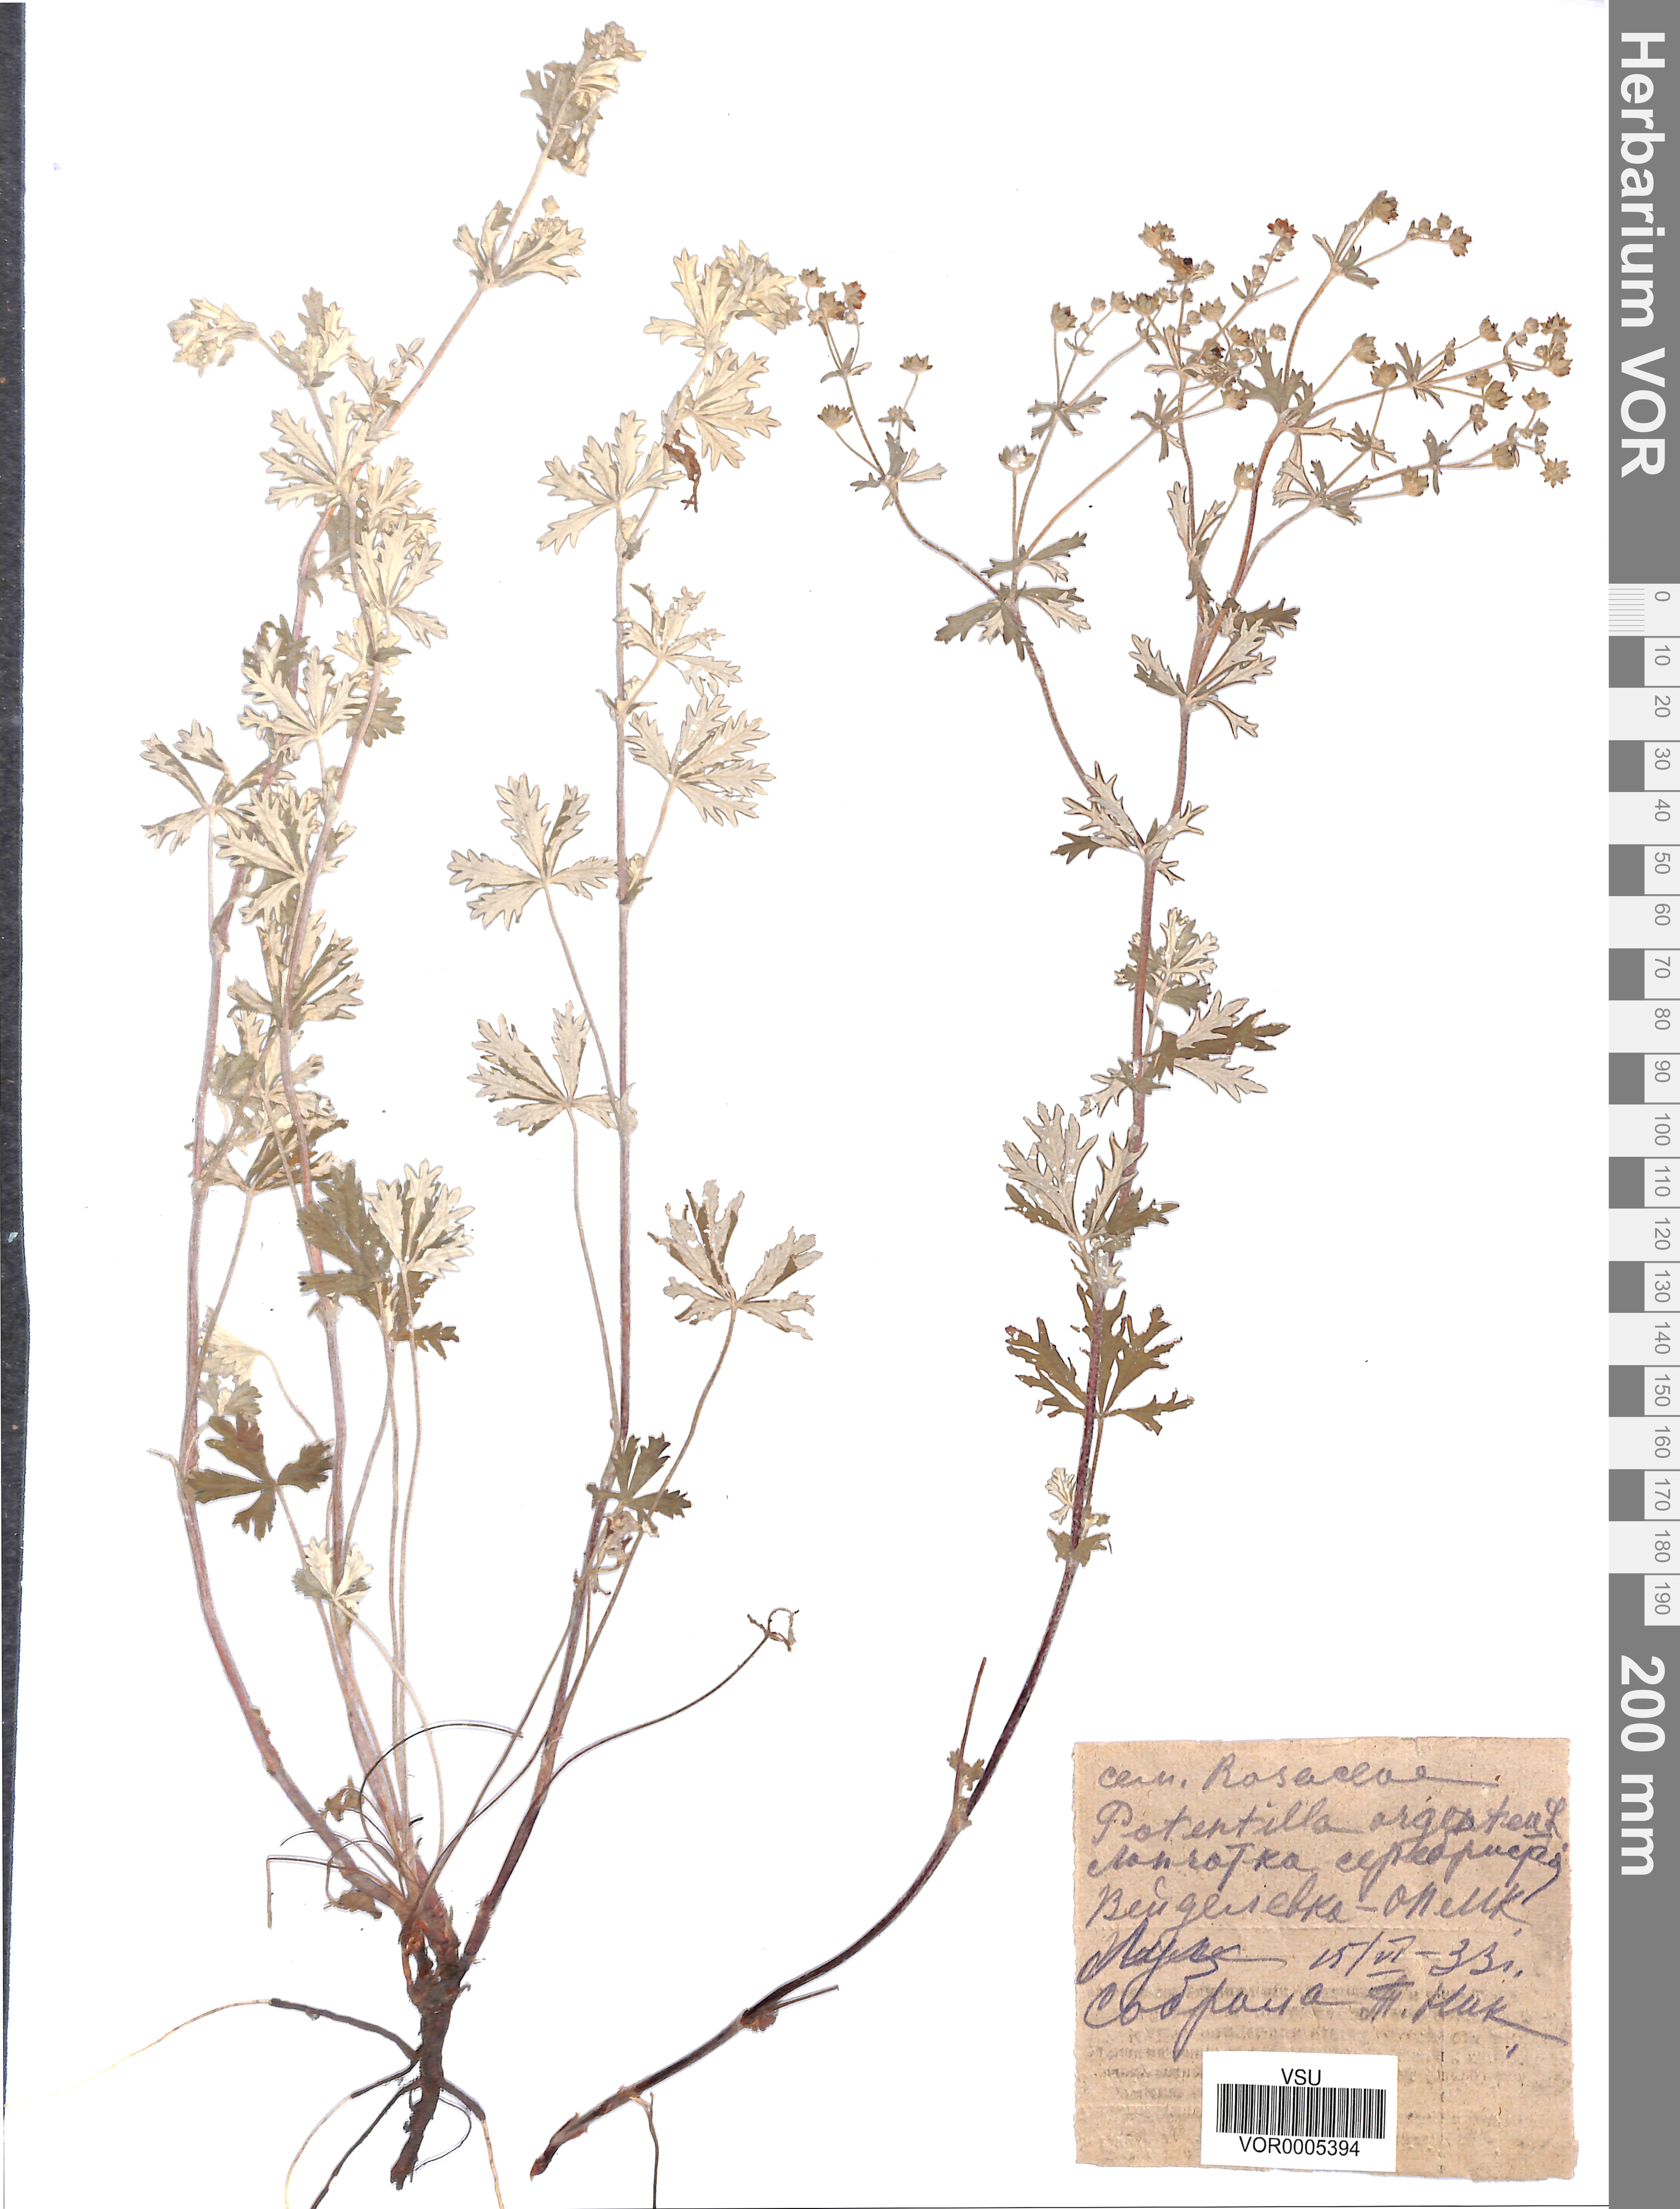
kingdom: Plantae
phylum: Tracheophyta
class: Magnoliopsida
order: Rosales
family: Rosaceae
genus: Potentilla
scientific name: Potentilla argentea
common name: Hoary cinquefoil
